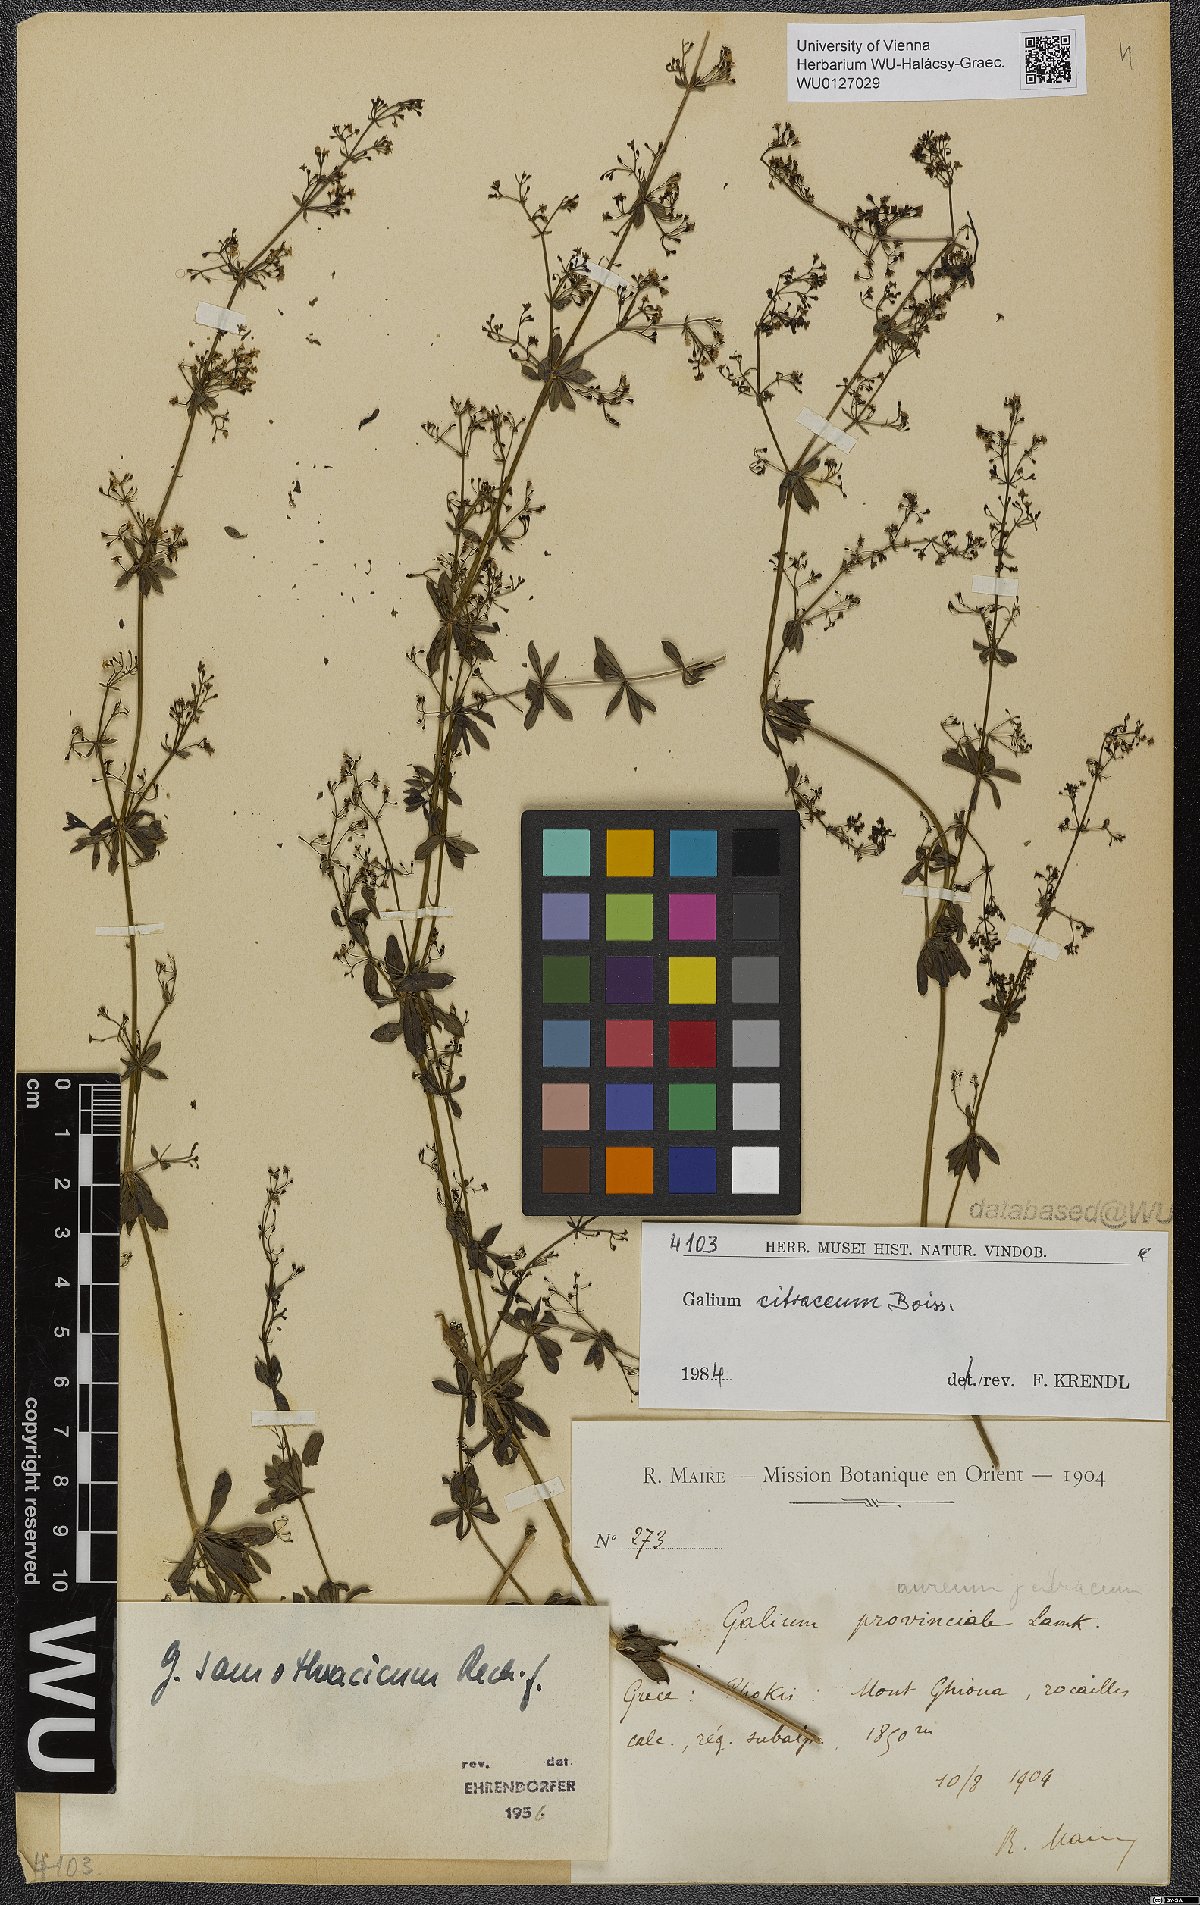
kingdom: Plantae
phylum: Tracheophyta
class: Magnoliopsida
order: Gentianales
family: Rubiaceae
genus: Galium
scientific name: Galium citraceum
